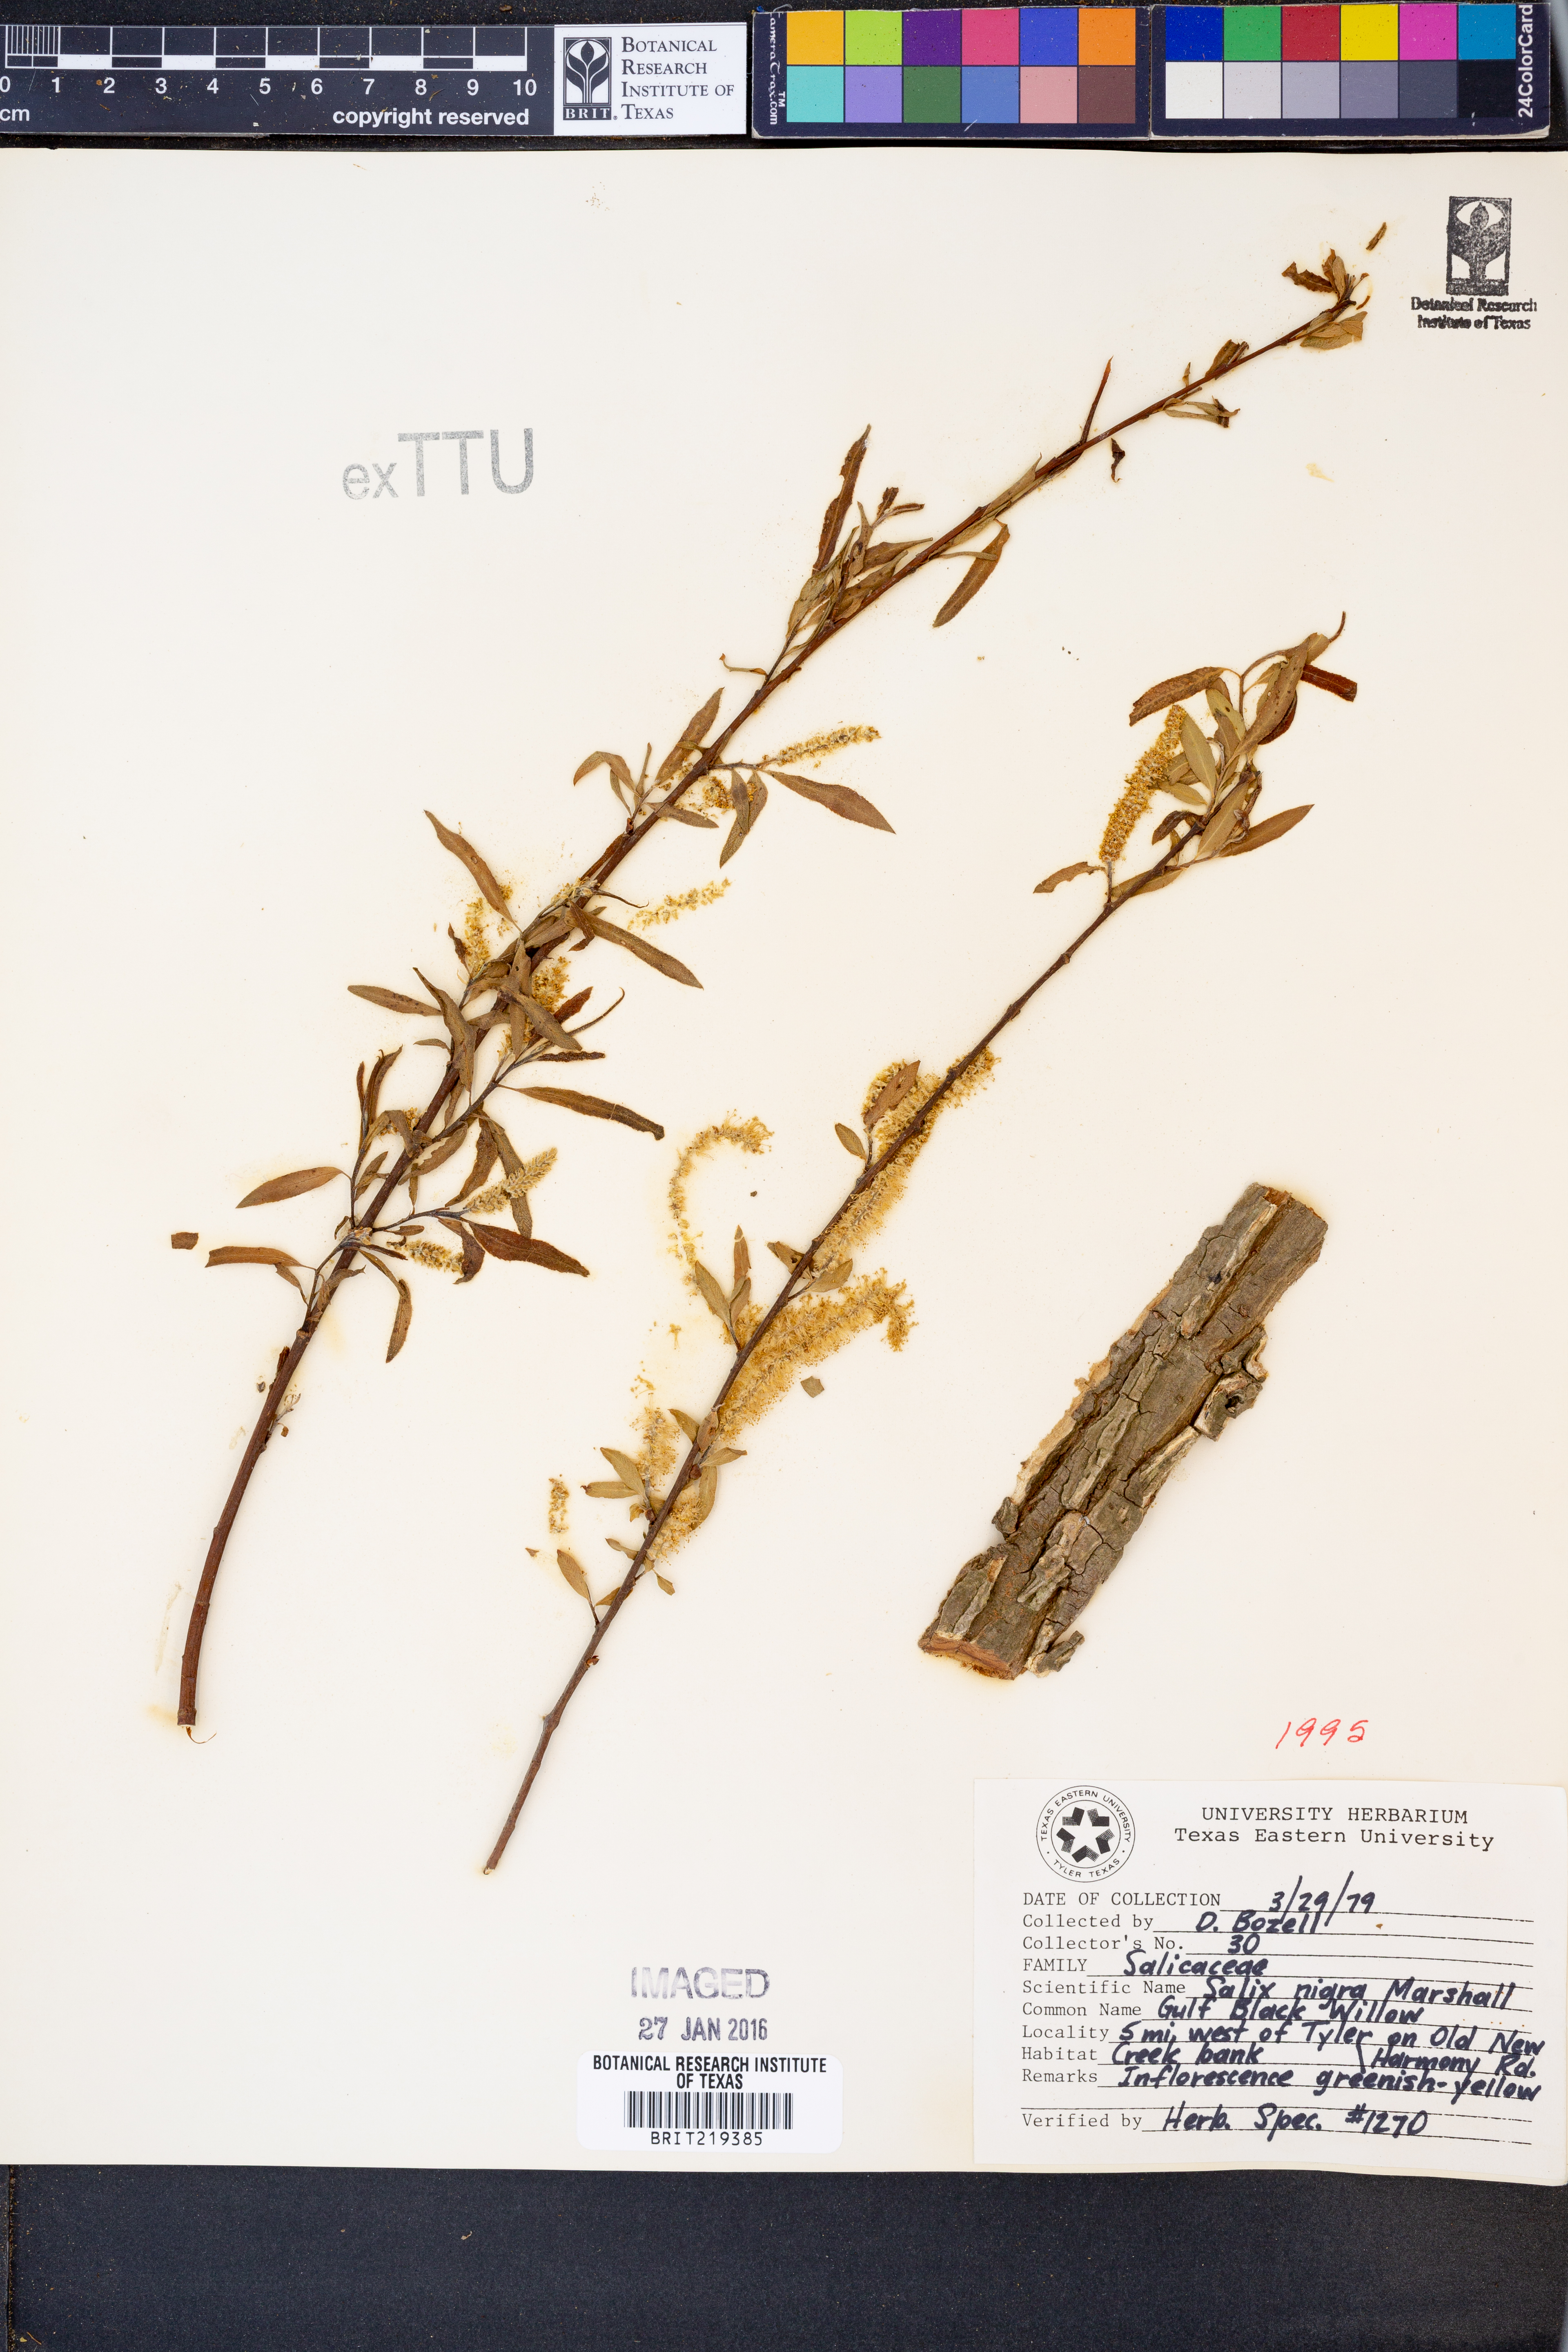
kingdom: Plantae
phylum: Tracheophyta
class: Magnoliopsida
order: Malpighiales
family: Salicaceae
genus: Salix
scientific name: Salix nigra
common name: Black willow
